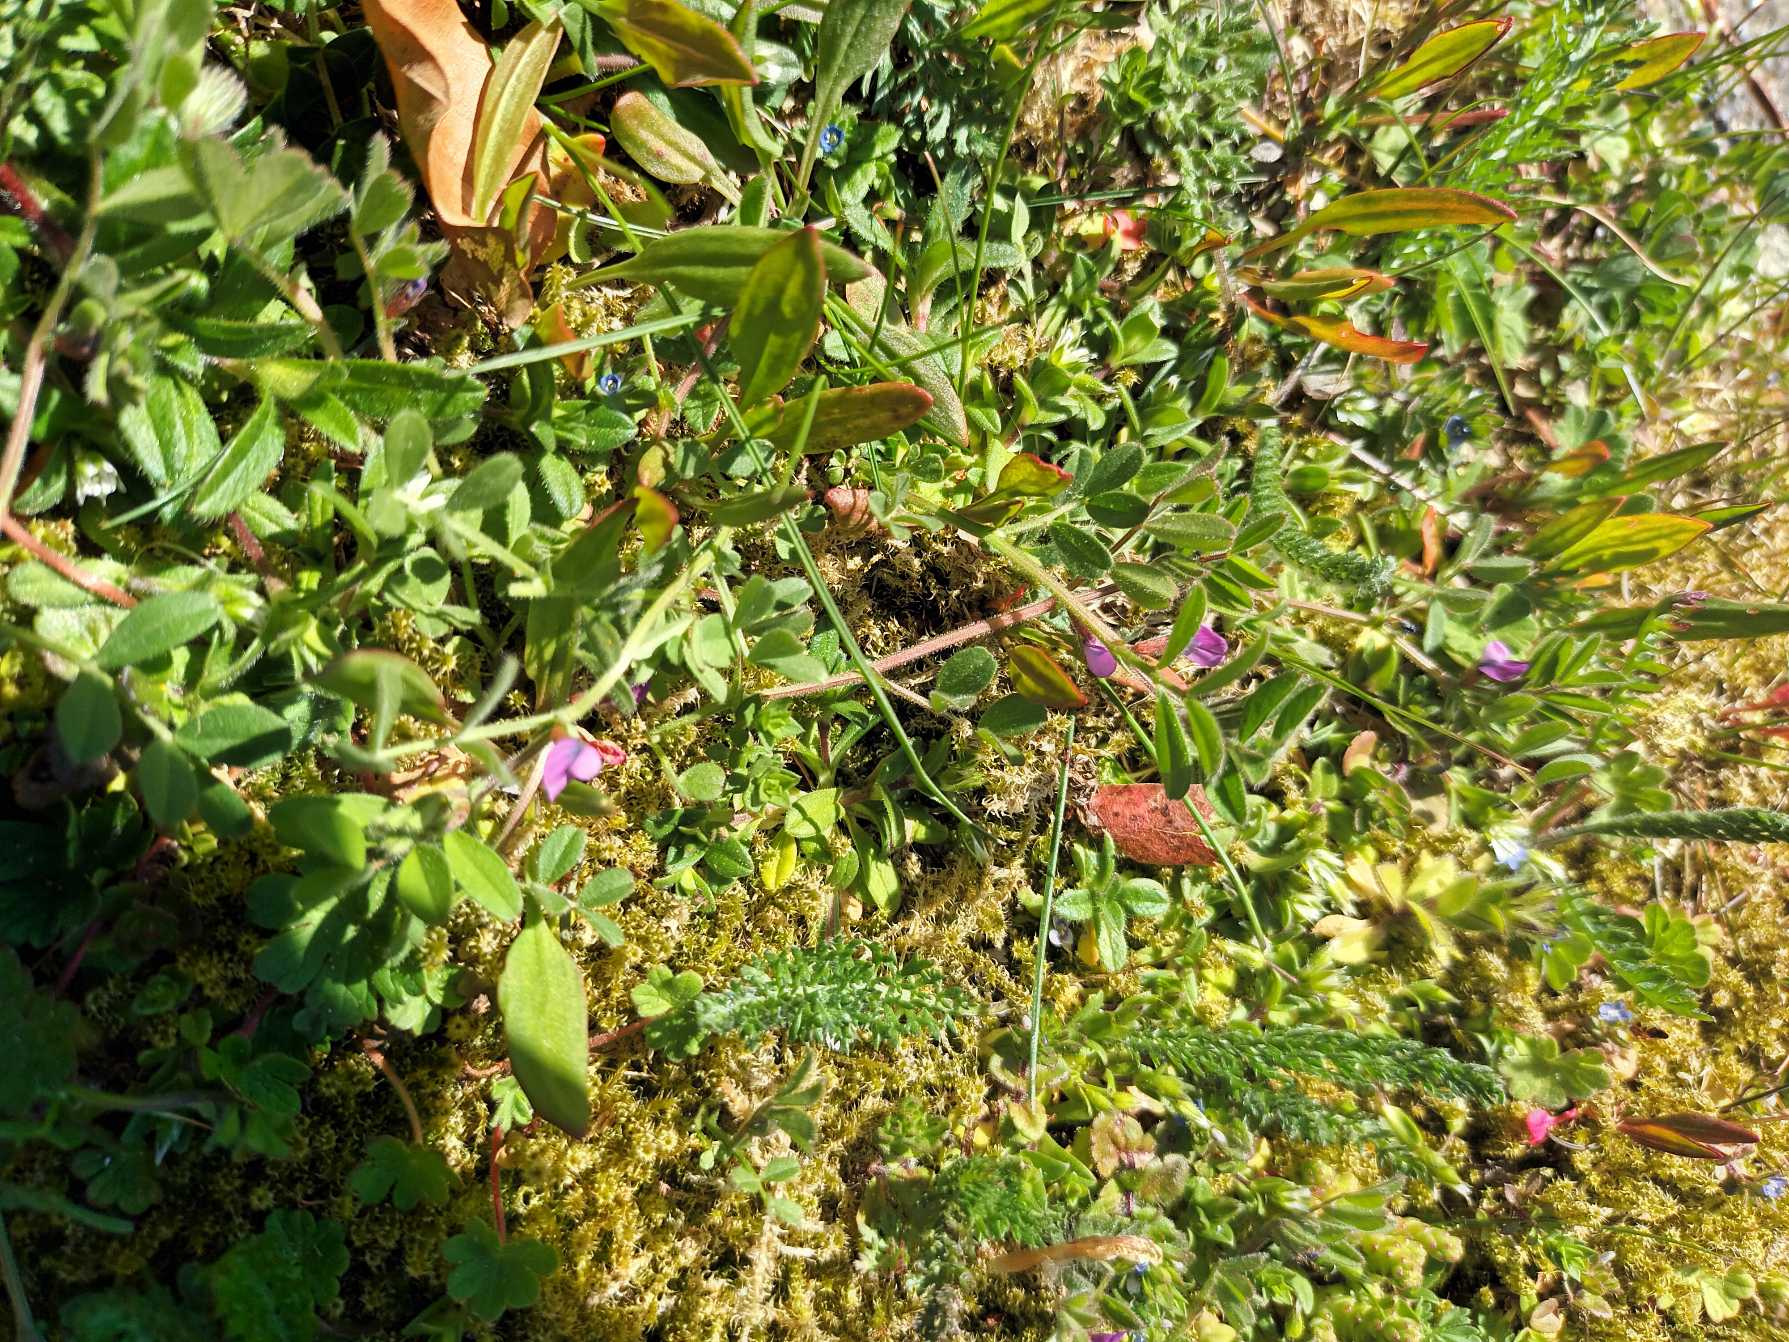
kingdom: Plantae
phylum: Tracheophyta
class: Magnoliopsida
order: Fabales
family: Fabaceae
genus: Vicia
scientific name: Vicia lathyroides
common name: Vår-vikke
